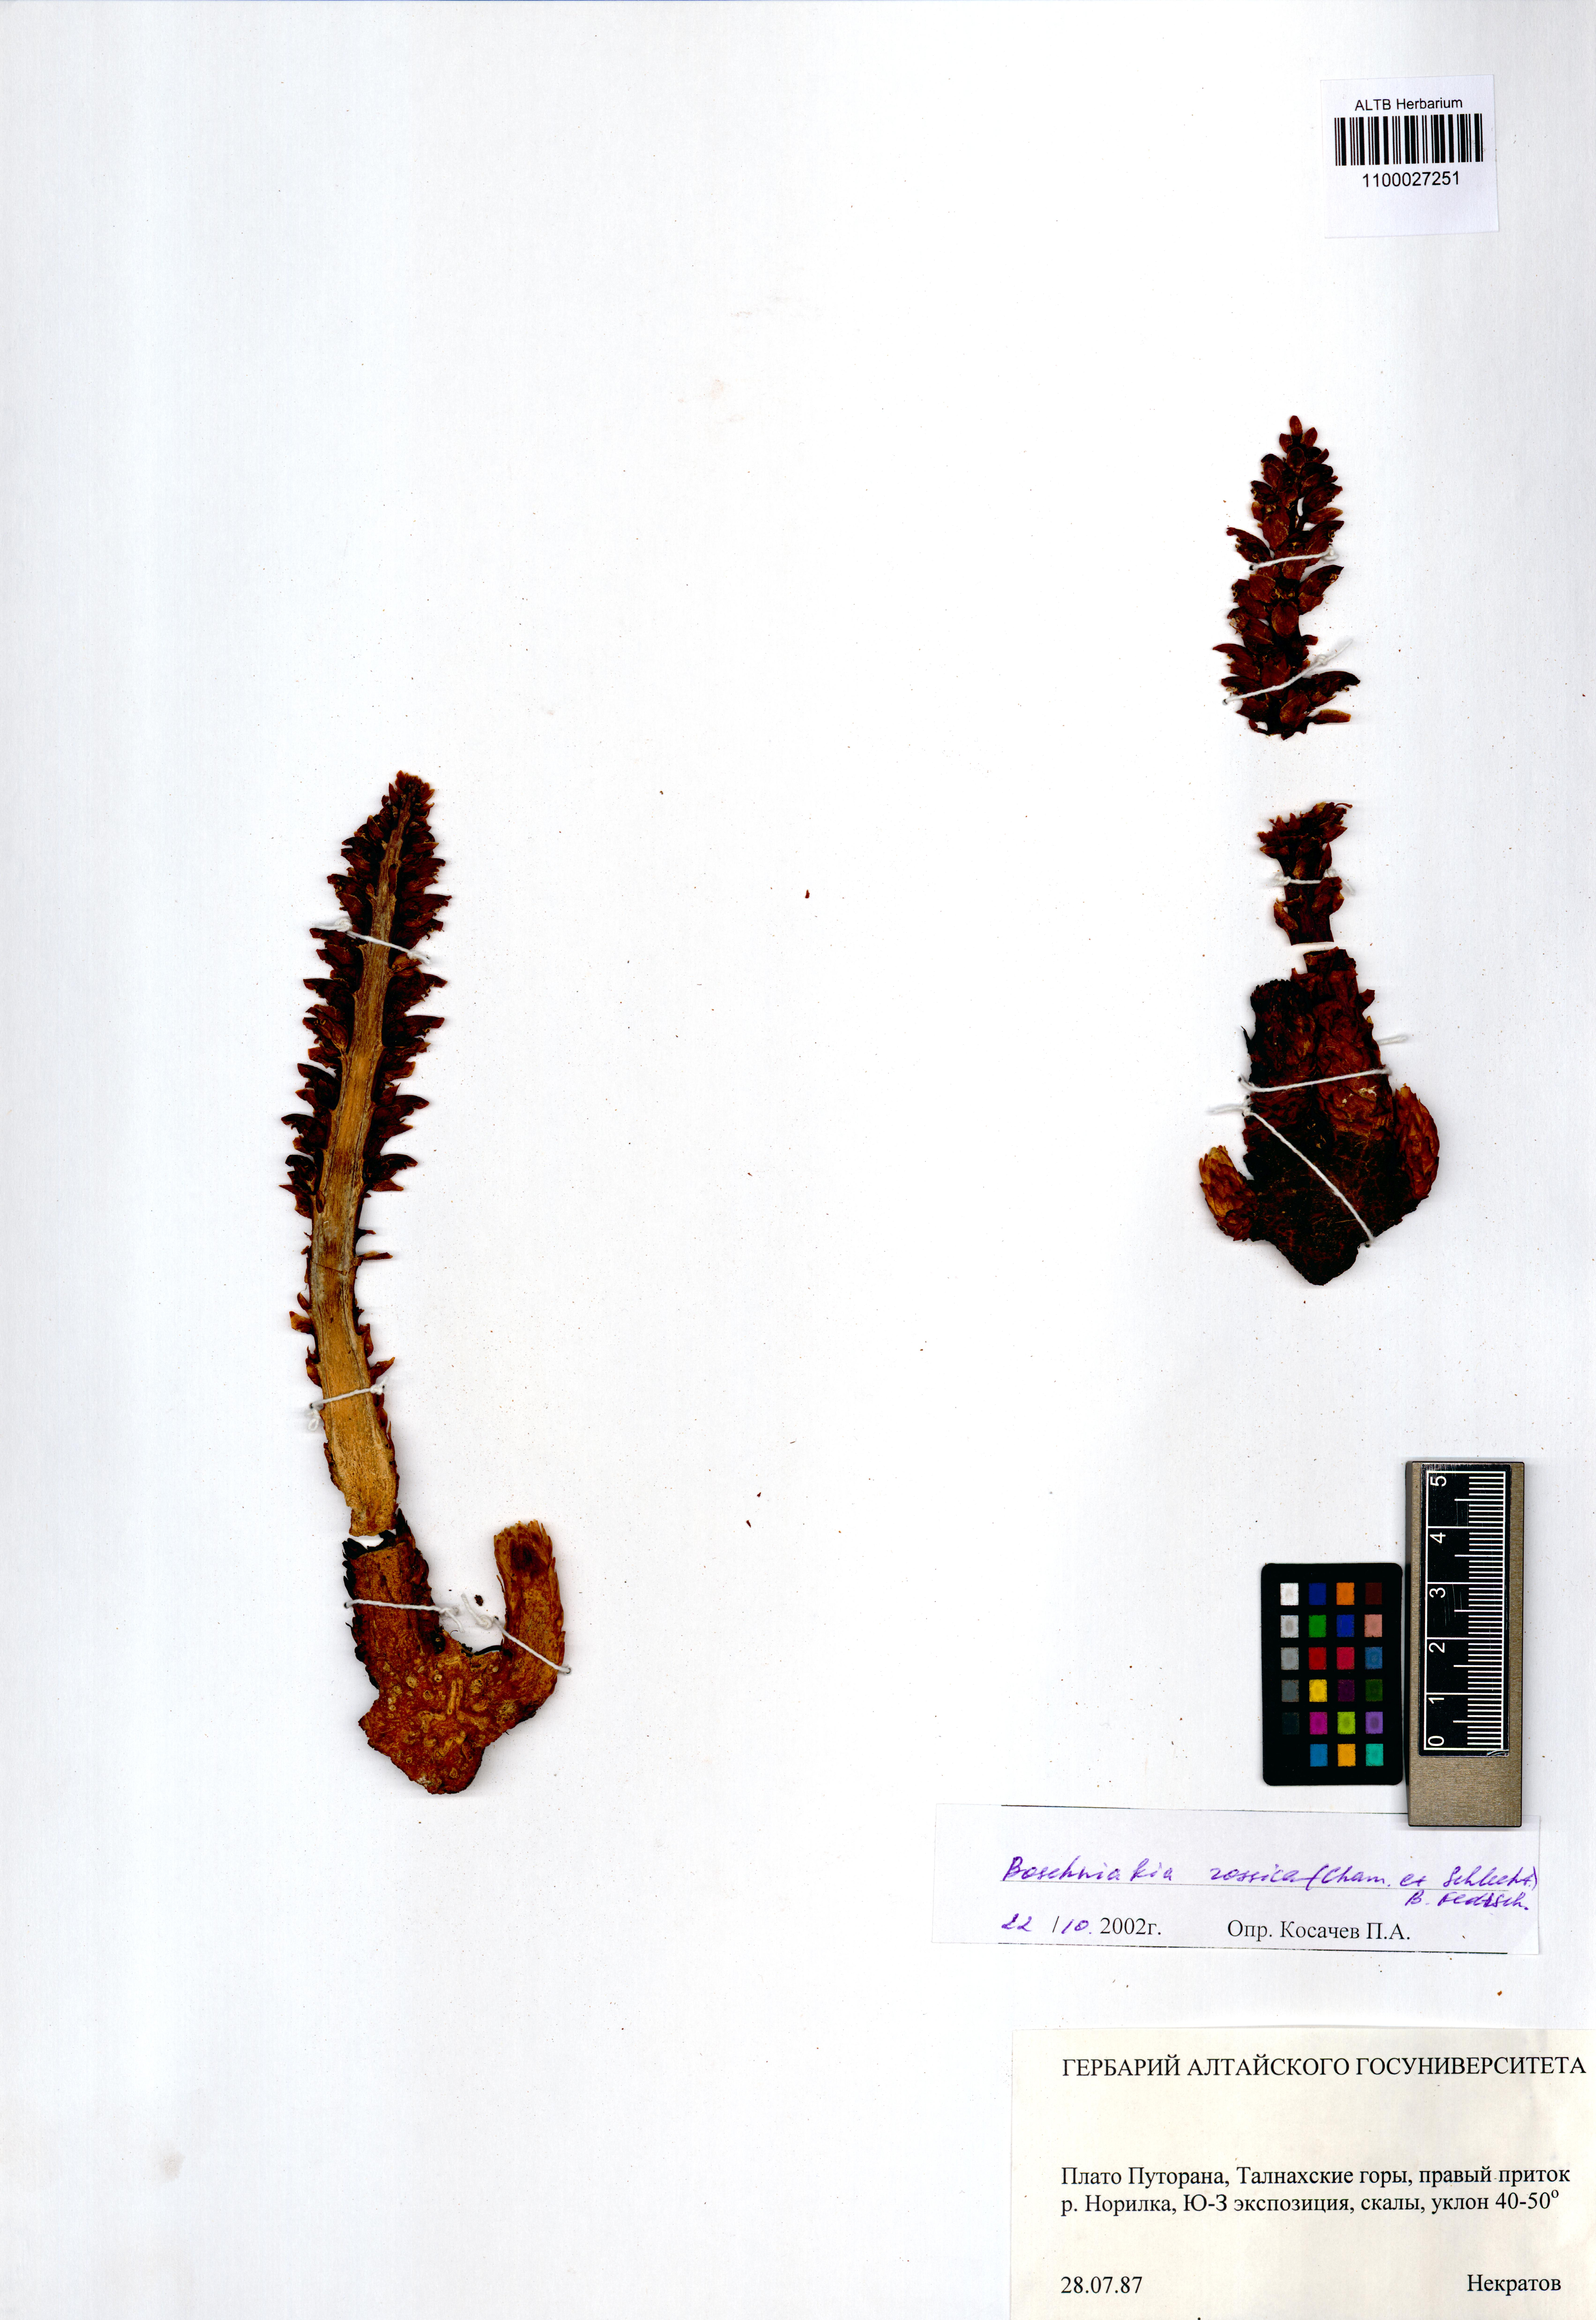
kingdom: Plantae
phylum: Tracheophyta
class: Magnoliopsida
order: Lamiales
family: Orobanchaceae
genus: Boschniakia
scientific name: Boschniakia rossica
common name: Poque
